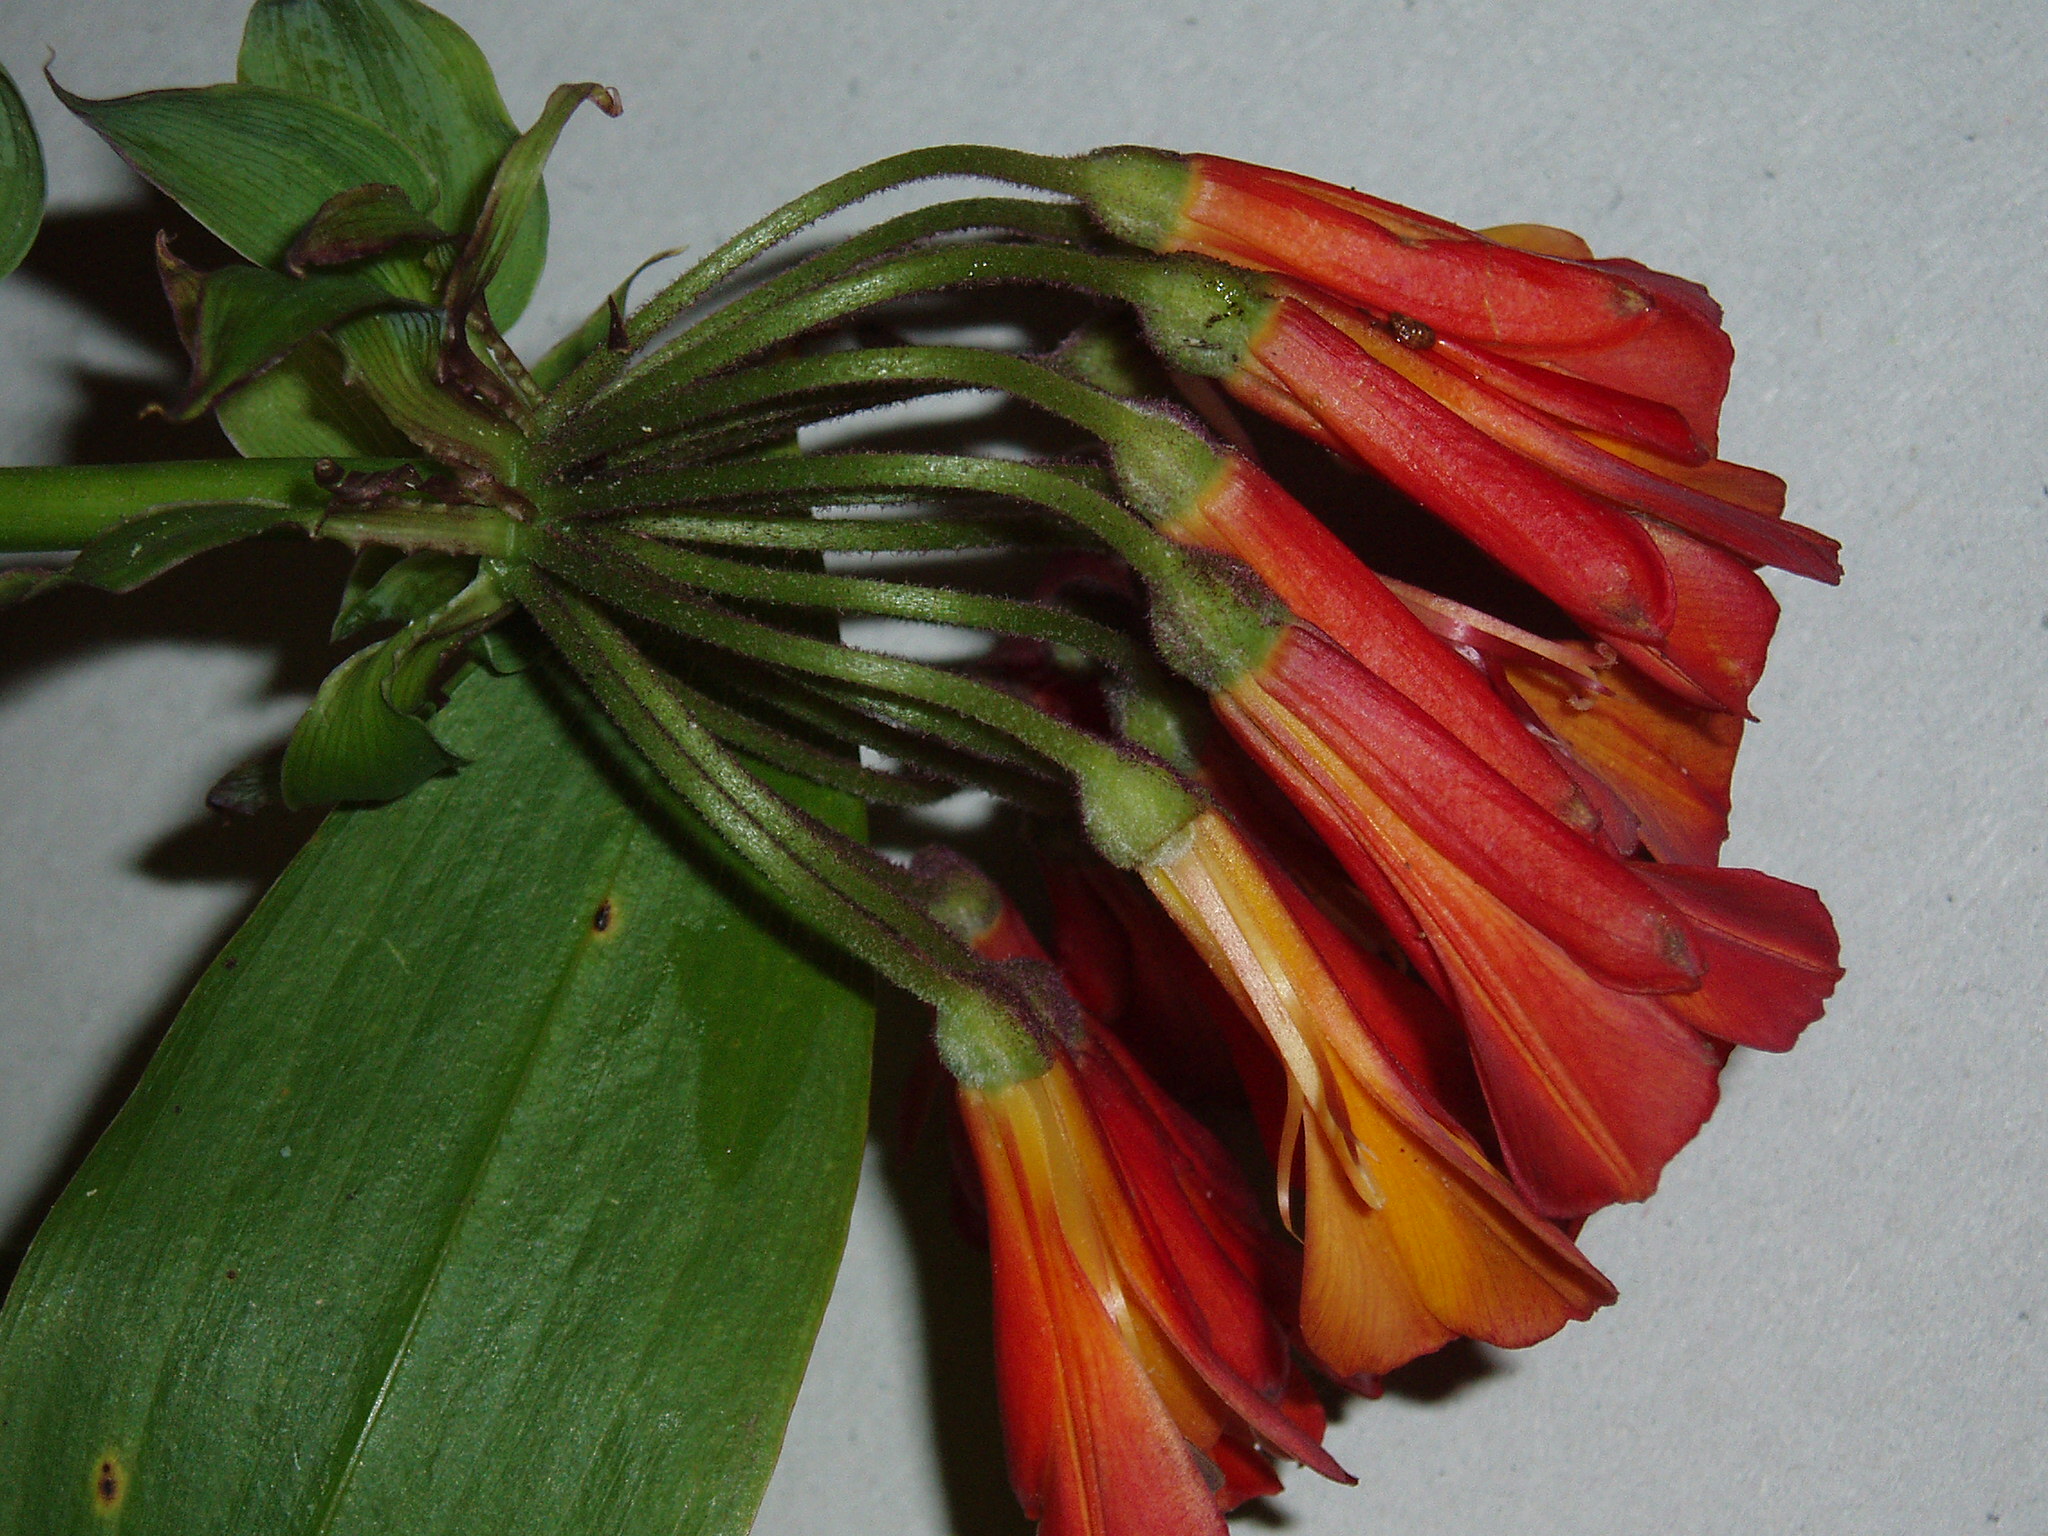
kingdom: Plantae
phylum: Tracheophyta
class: Liliopsida
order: Liliales
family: Alstroemeriaceae
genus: Bomarea
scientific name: Bomarea multiflora
